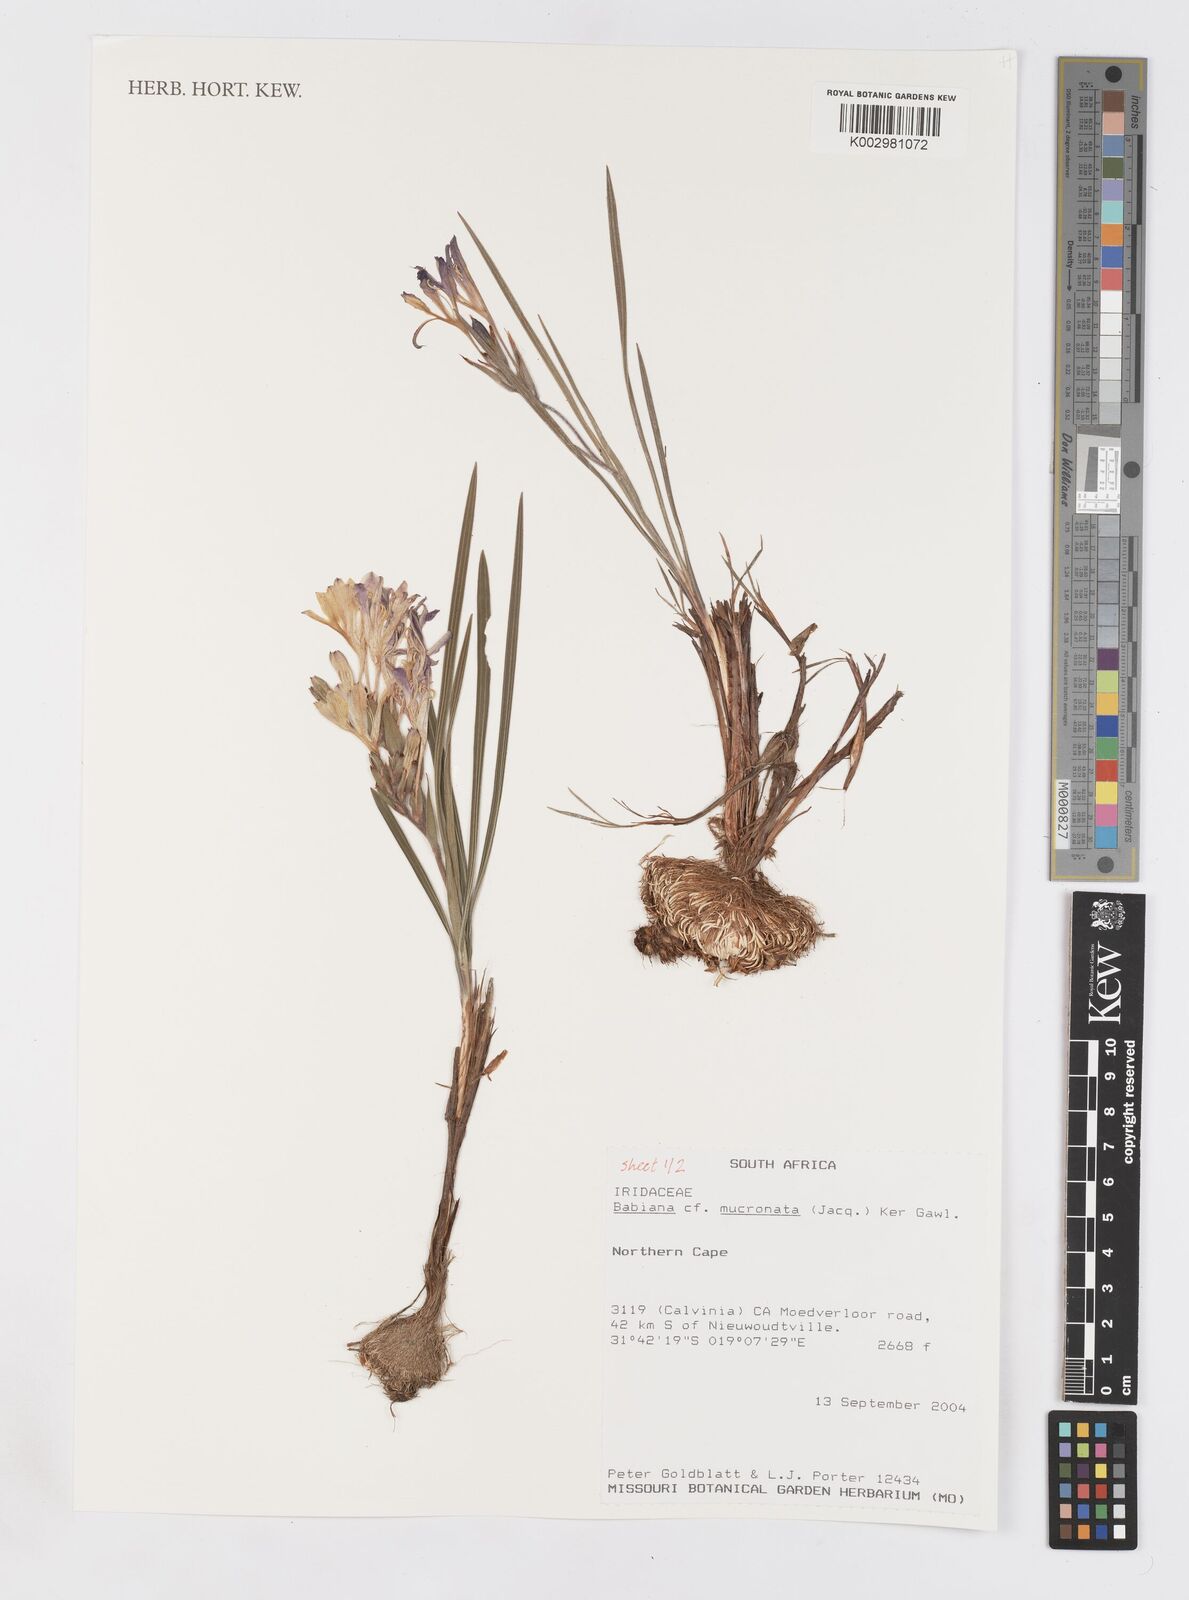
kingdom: Plantae
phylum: Tracheophyta
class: Liliopsida
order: Asparagales
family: Iridaceae
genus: Babiana
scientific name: Babiana mucronata
